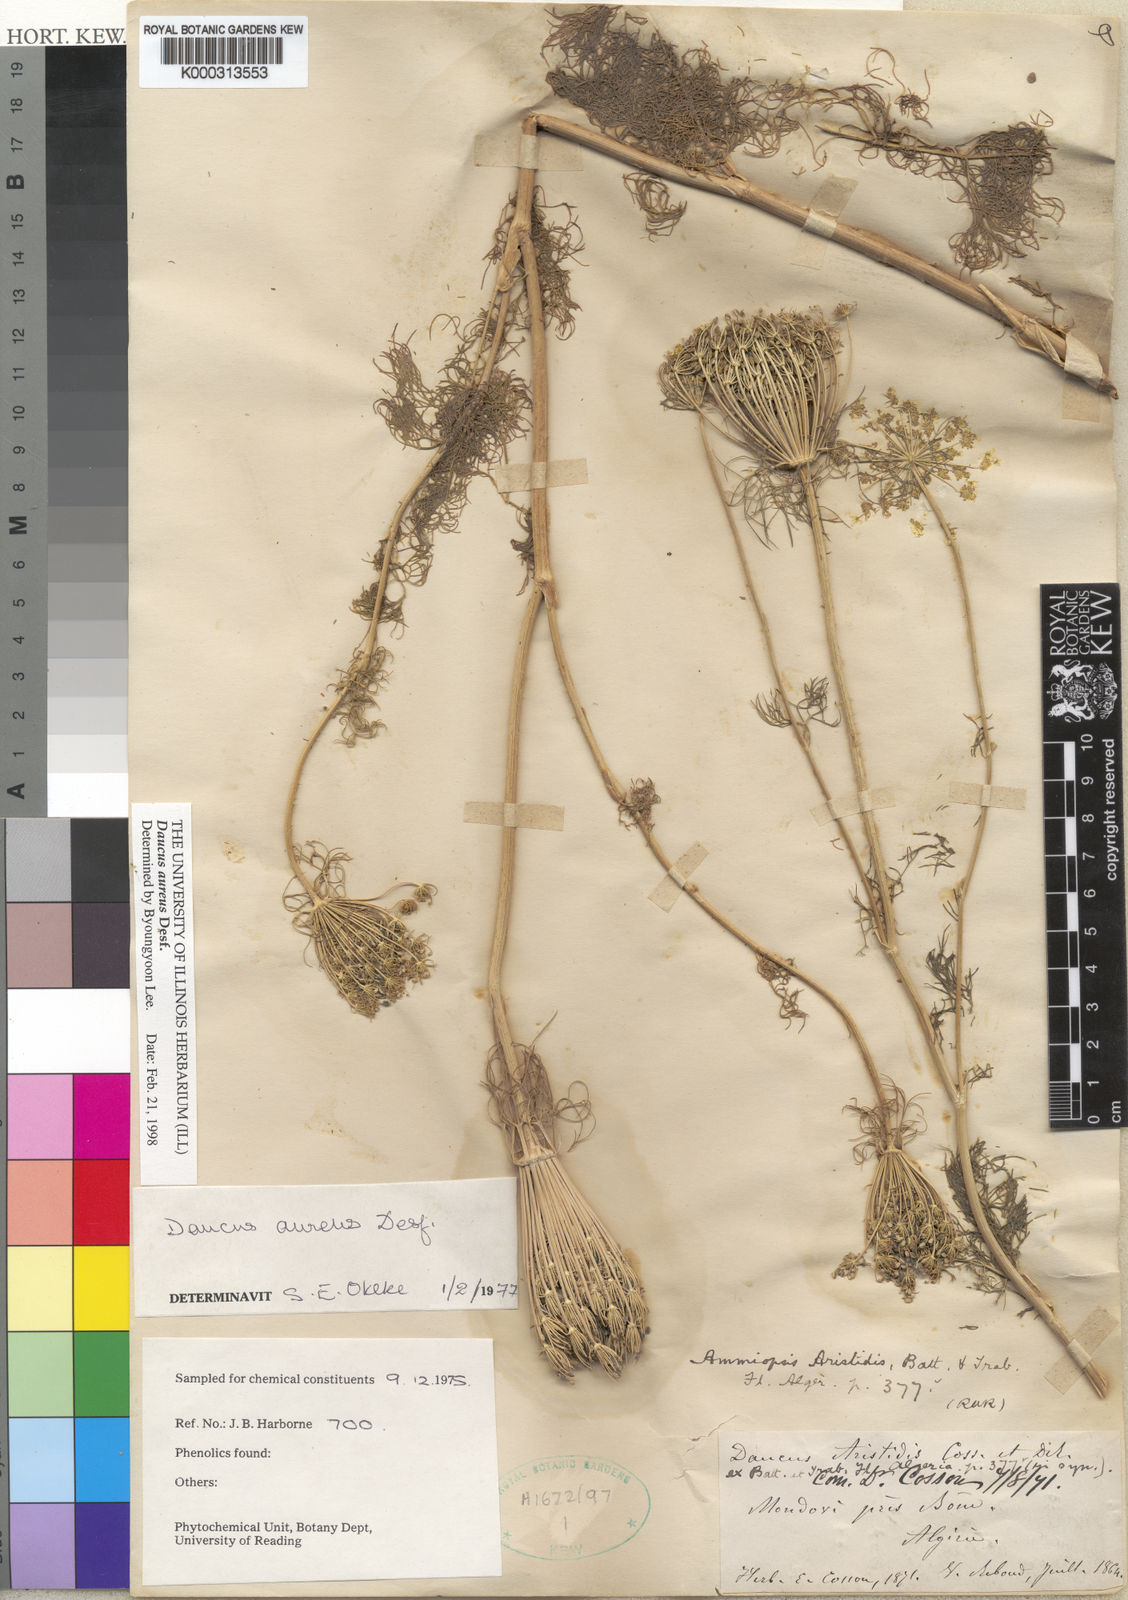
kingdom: Plantae
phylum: Tracheophyta
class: Magnoliopsida
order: Apiales
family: Apiaceae
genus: Daucus
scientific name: Daucus aureus
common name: Golden carrot
